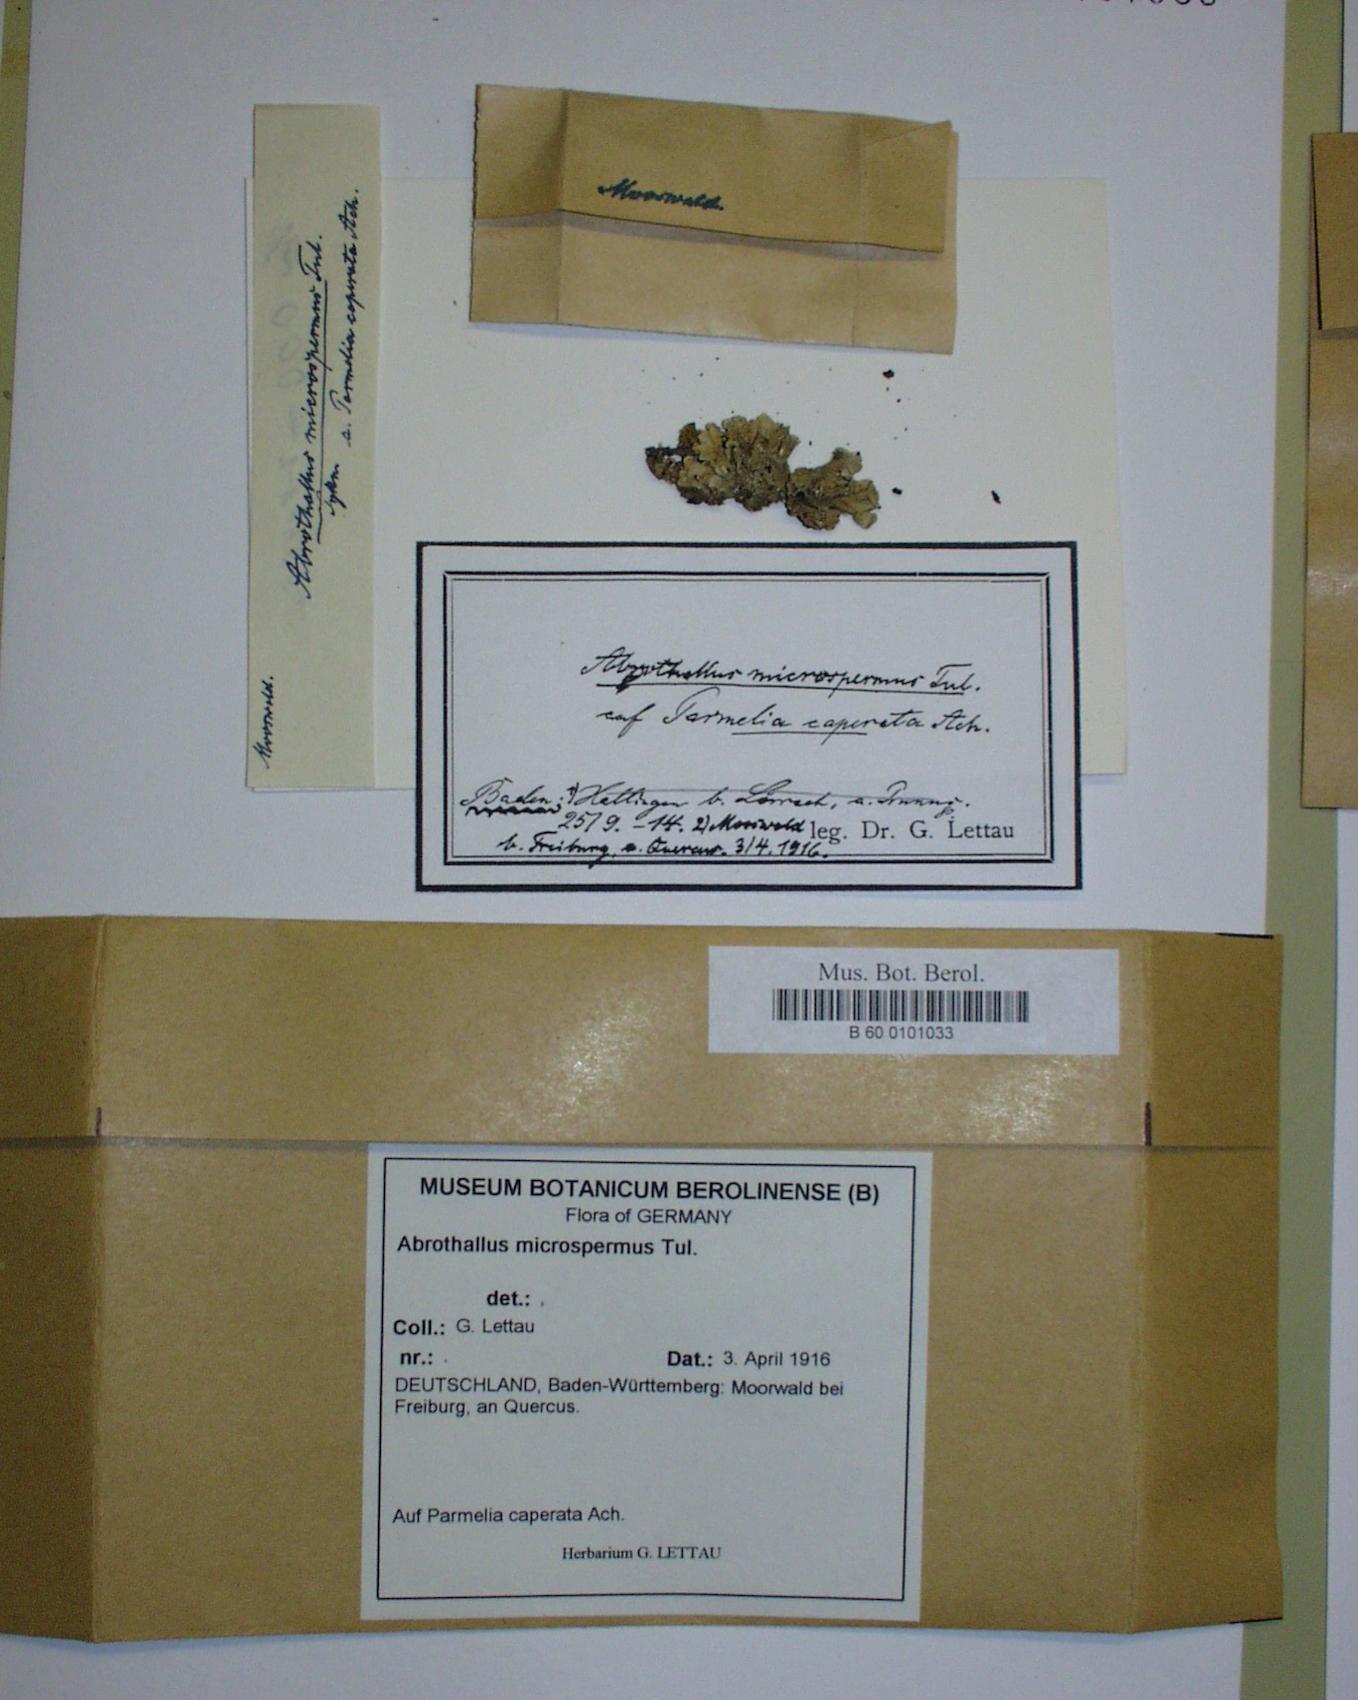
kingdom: Fungi
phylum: Ascomycota
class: Dothideomycetes
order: Abrothallales
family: Abrothallaceae
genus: Abrothallus
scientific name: Abrothallus microspermus
